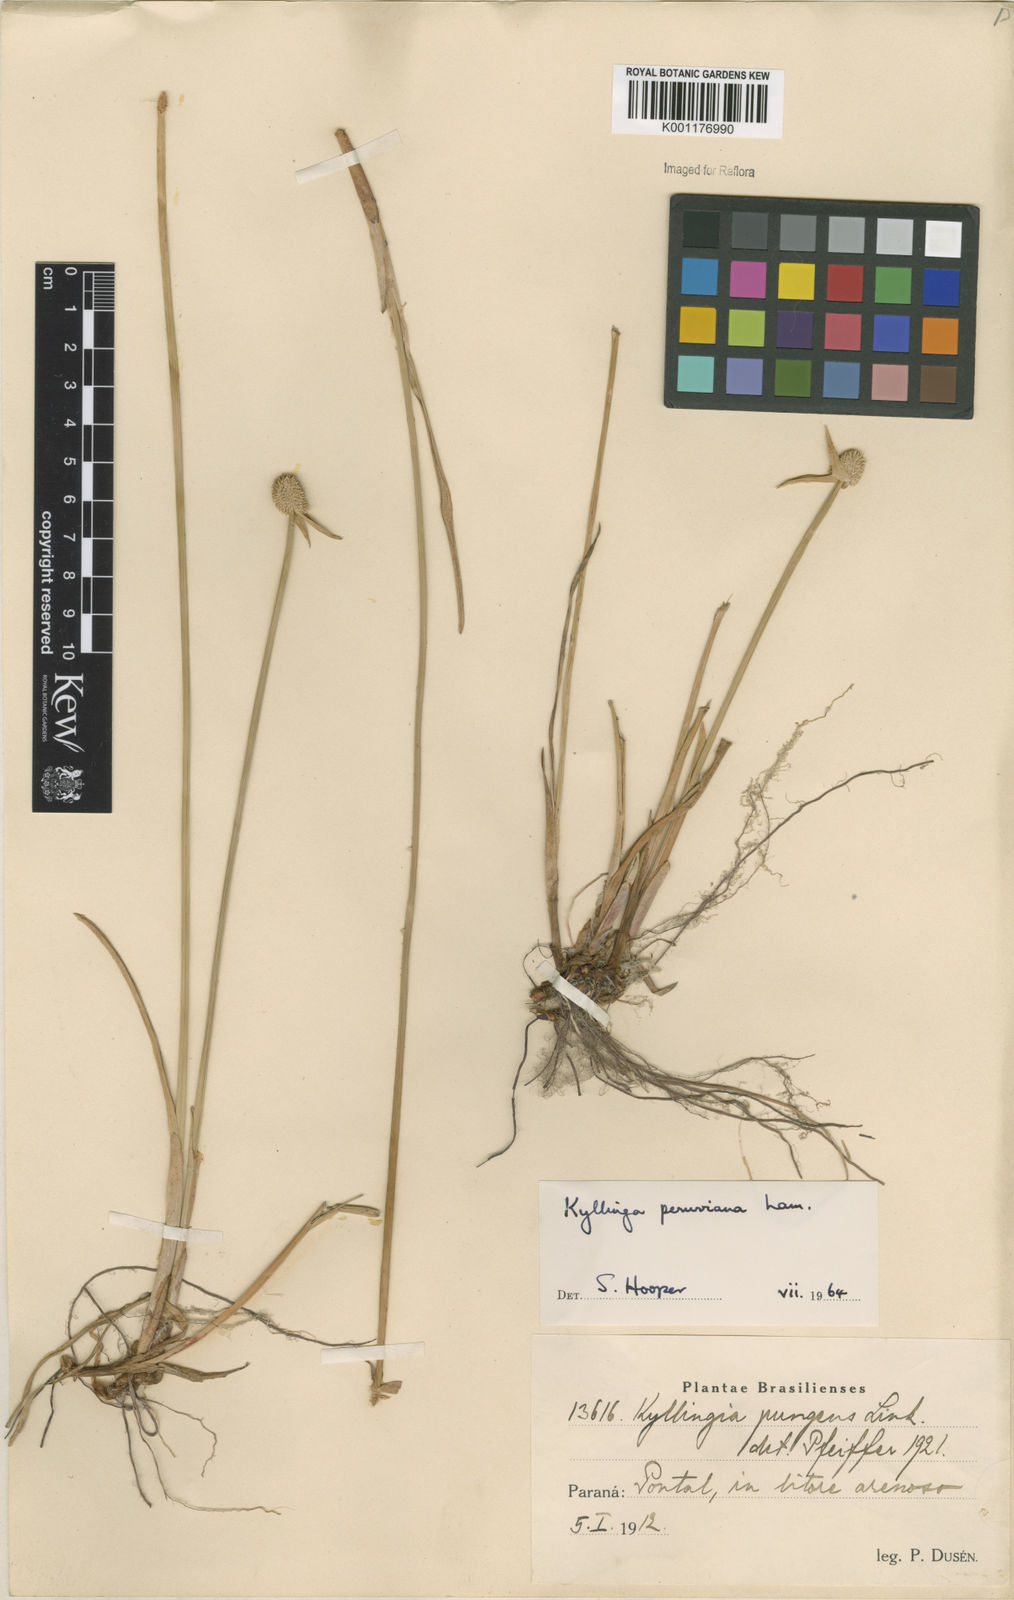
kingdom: Plantae
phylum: Tracheophyta
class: Liliopsida
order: Poales
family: Cyperaceae
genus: Cyperus
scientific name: Cyperus obtusatus
